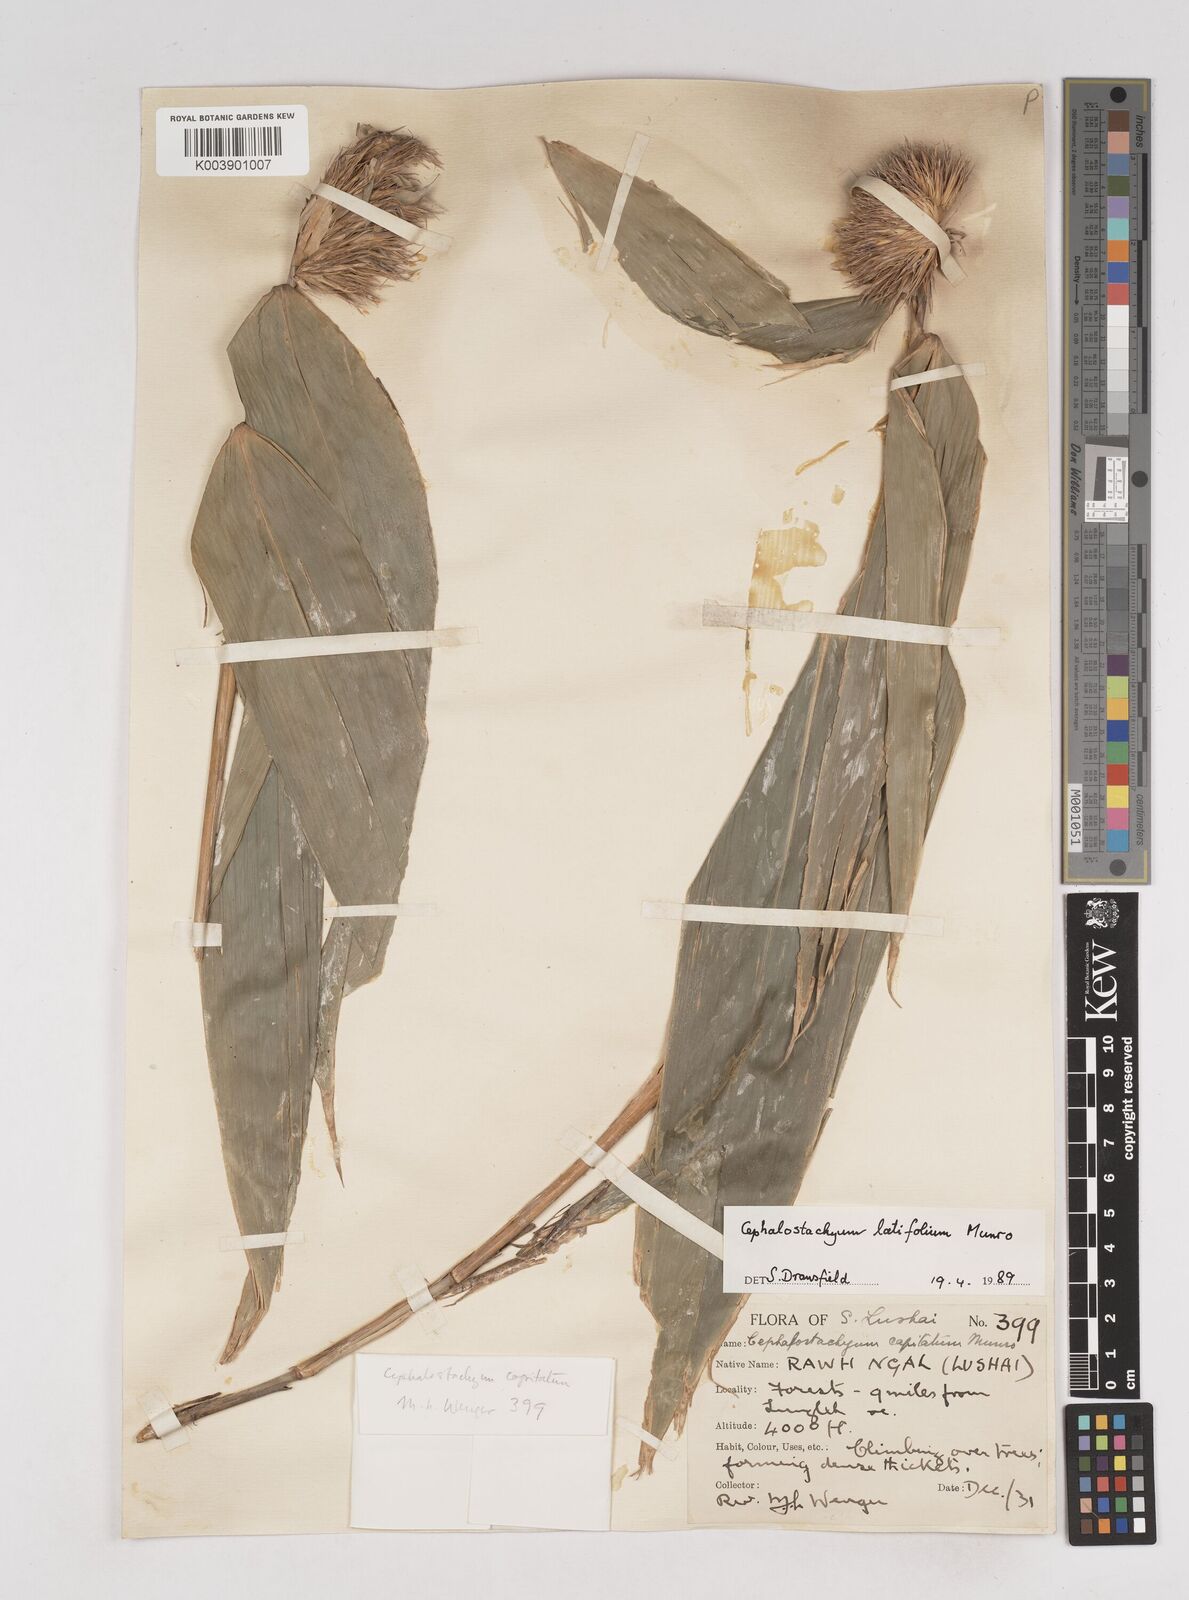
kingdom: Plantae
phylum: Tracheophyta
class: Liliopsida
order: Poales
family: Poaceae
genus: Cephalostachyum
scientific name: Cephalostachyum latifolium
